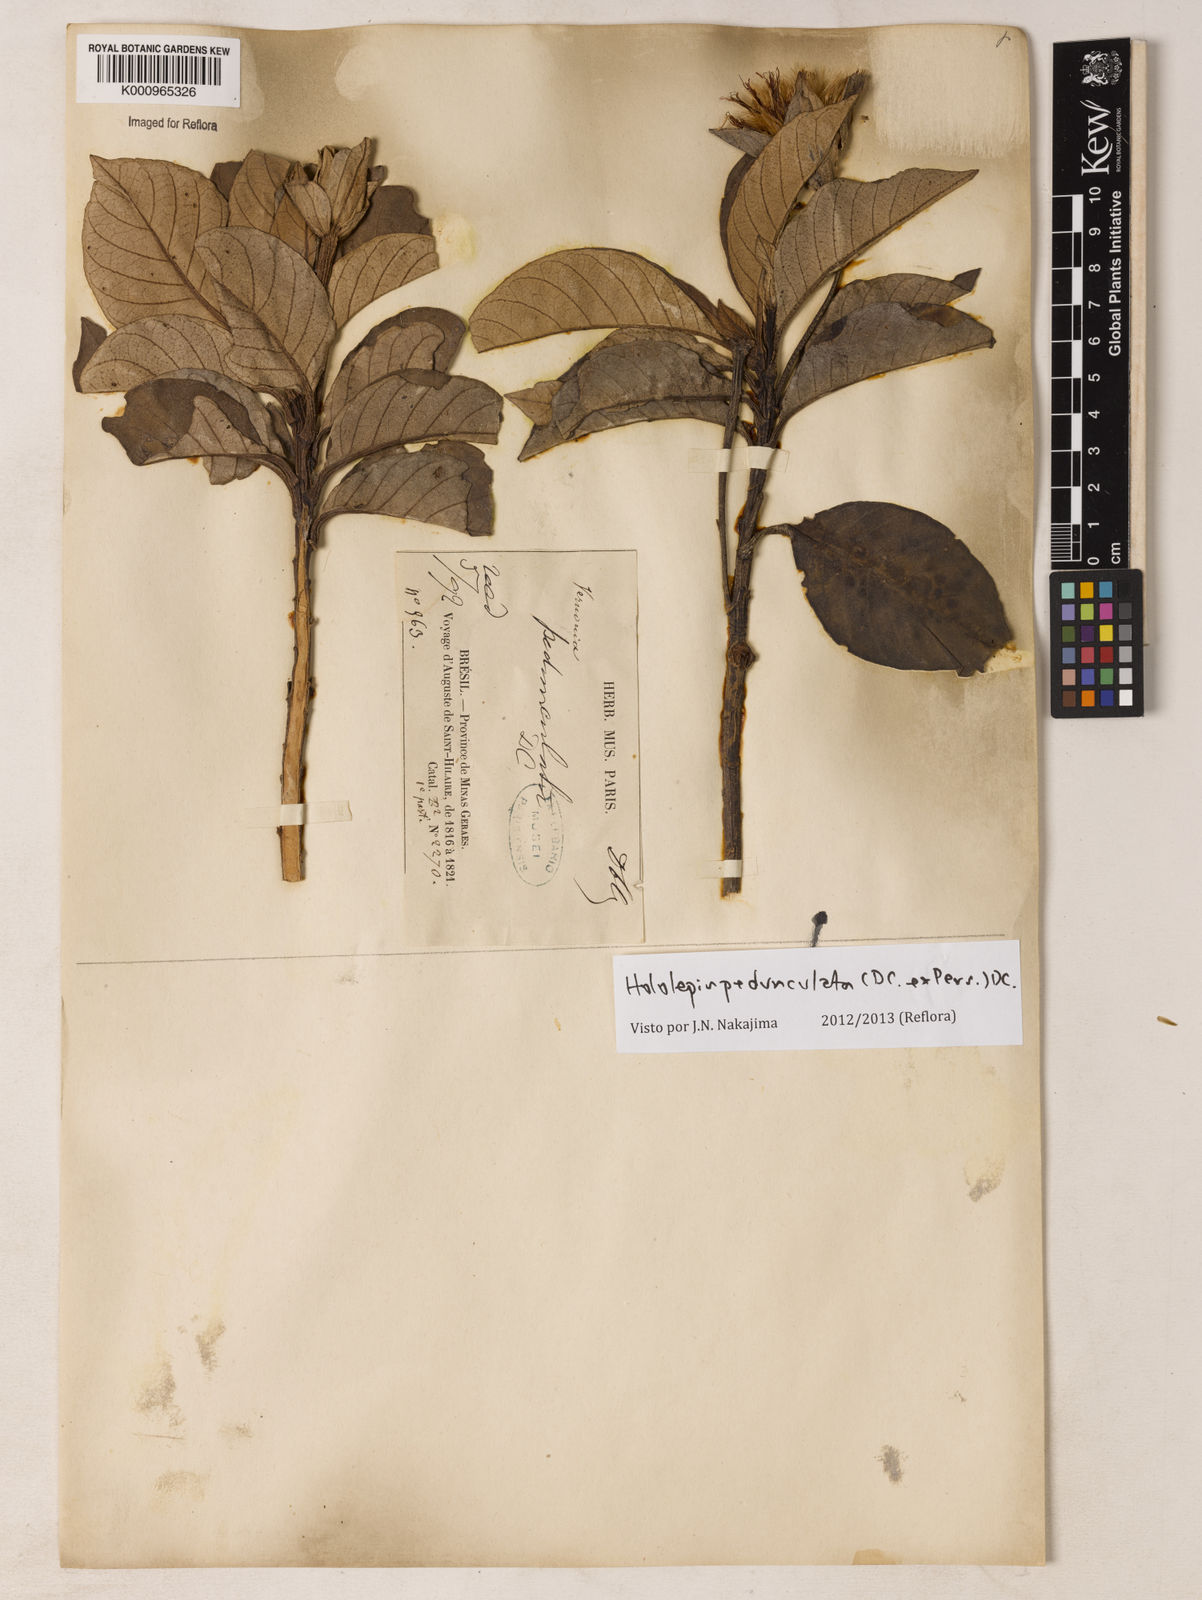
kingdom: Plantae
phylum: Tracheophyta
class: Magnoliopsida
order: Asterales
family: Asteraceae
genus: Hololepis
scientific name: Hololepis pedunculata
